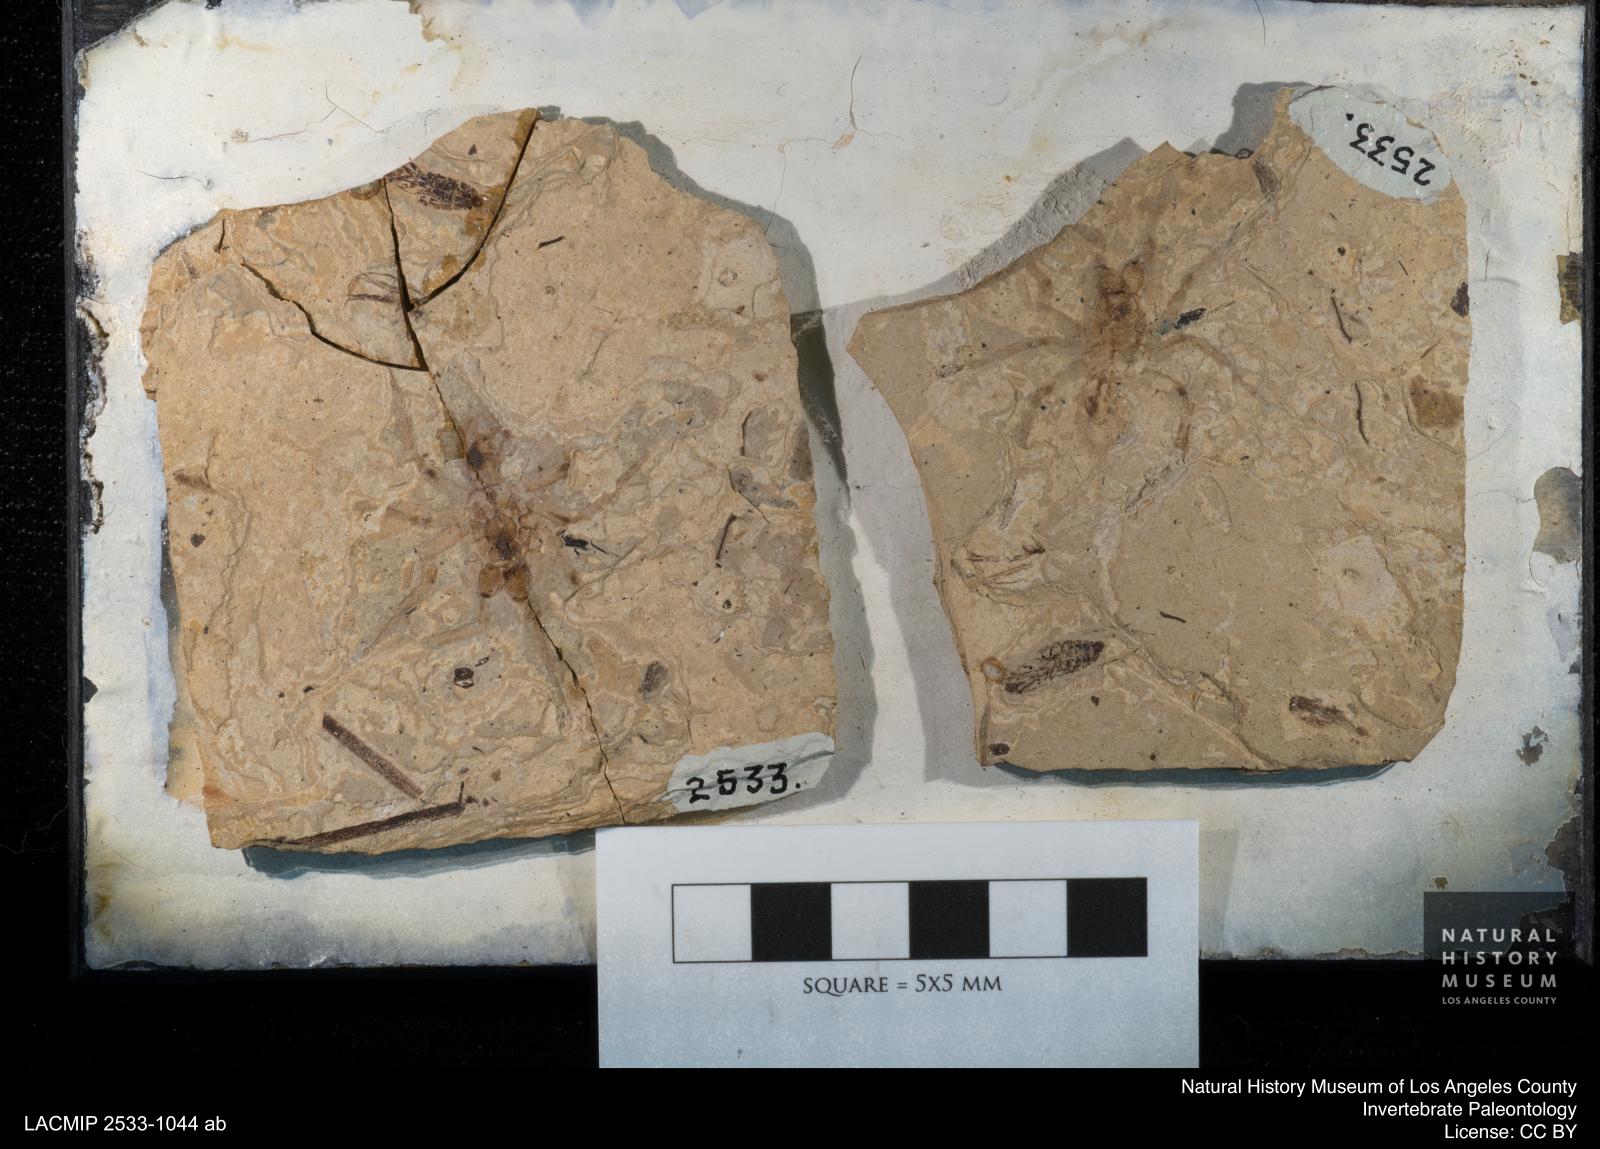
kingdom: Animalia
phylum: Arthropoda
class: Arachnida
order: Araneae
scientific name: Araneae
